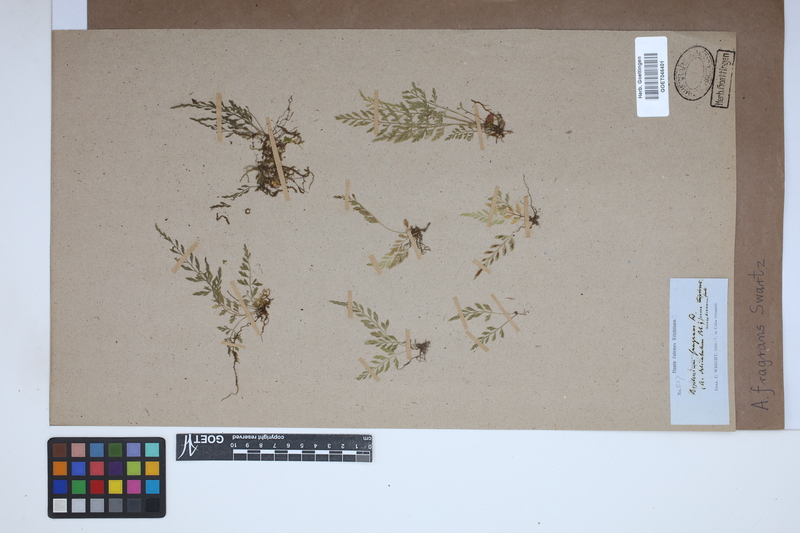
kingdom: Plantae
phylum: Tracheophyta
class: Polypodiopsida
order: Polypodiales
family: Aspleniaceae
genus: Asplenium
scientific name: Asplenium fragrans
